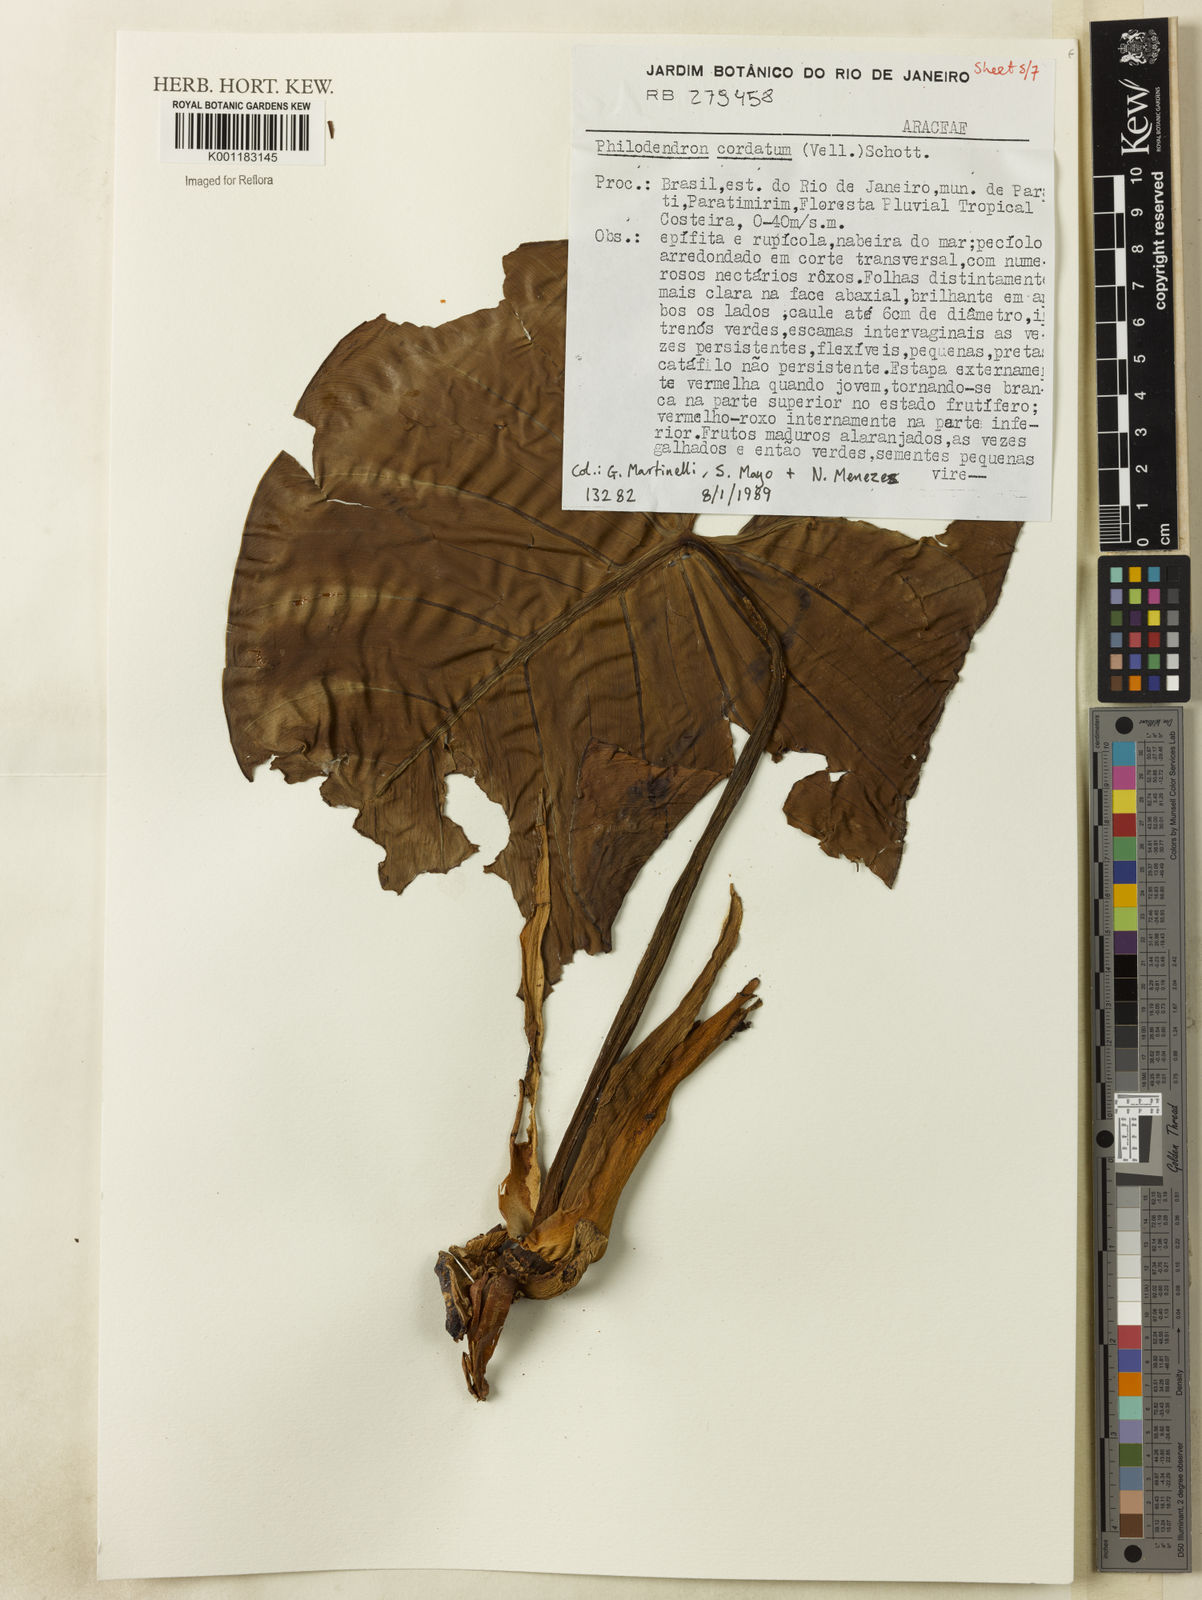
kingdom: Plantae
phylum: Tracheophyta
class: Liliopsida
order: Alismatales
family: Araceae
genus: Philodendron
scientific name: Philodendron cordatum
